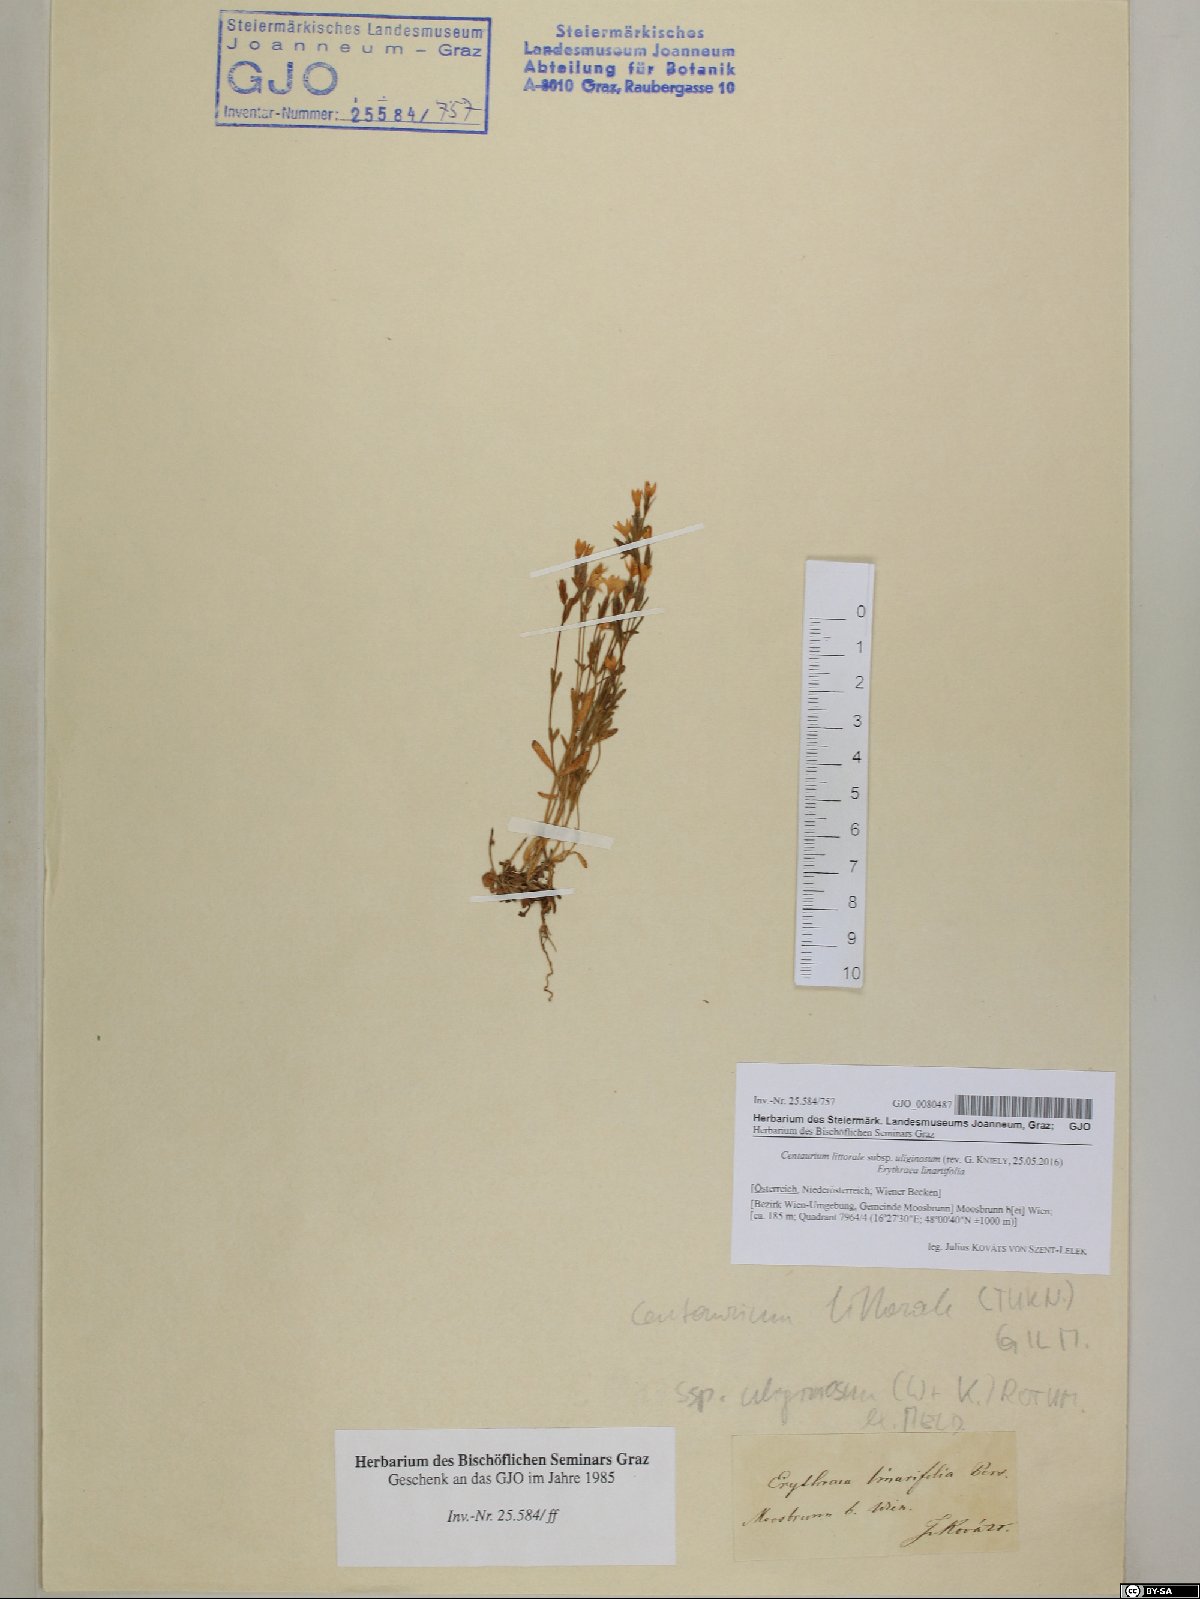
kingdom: Plantae
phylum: Tracheophyta
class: Magnoliopsida
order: Gentianales
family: Gentianaceae
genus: Centaurium
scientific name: Centaurium littorale
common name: Seaside centaury
